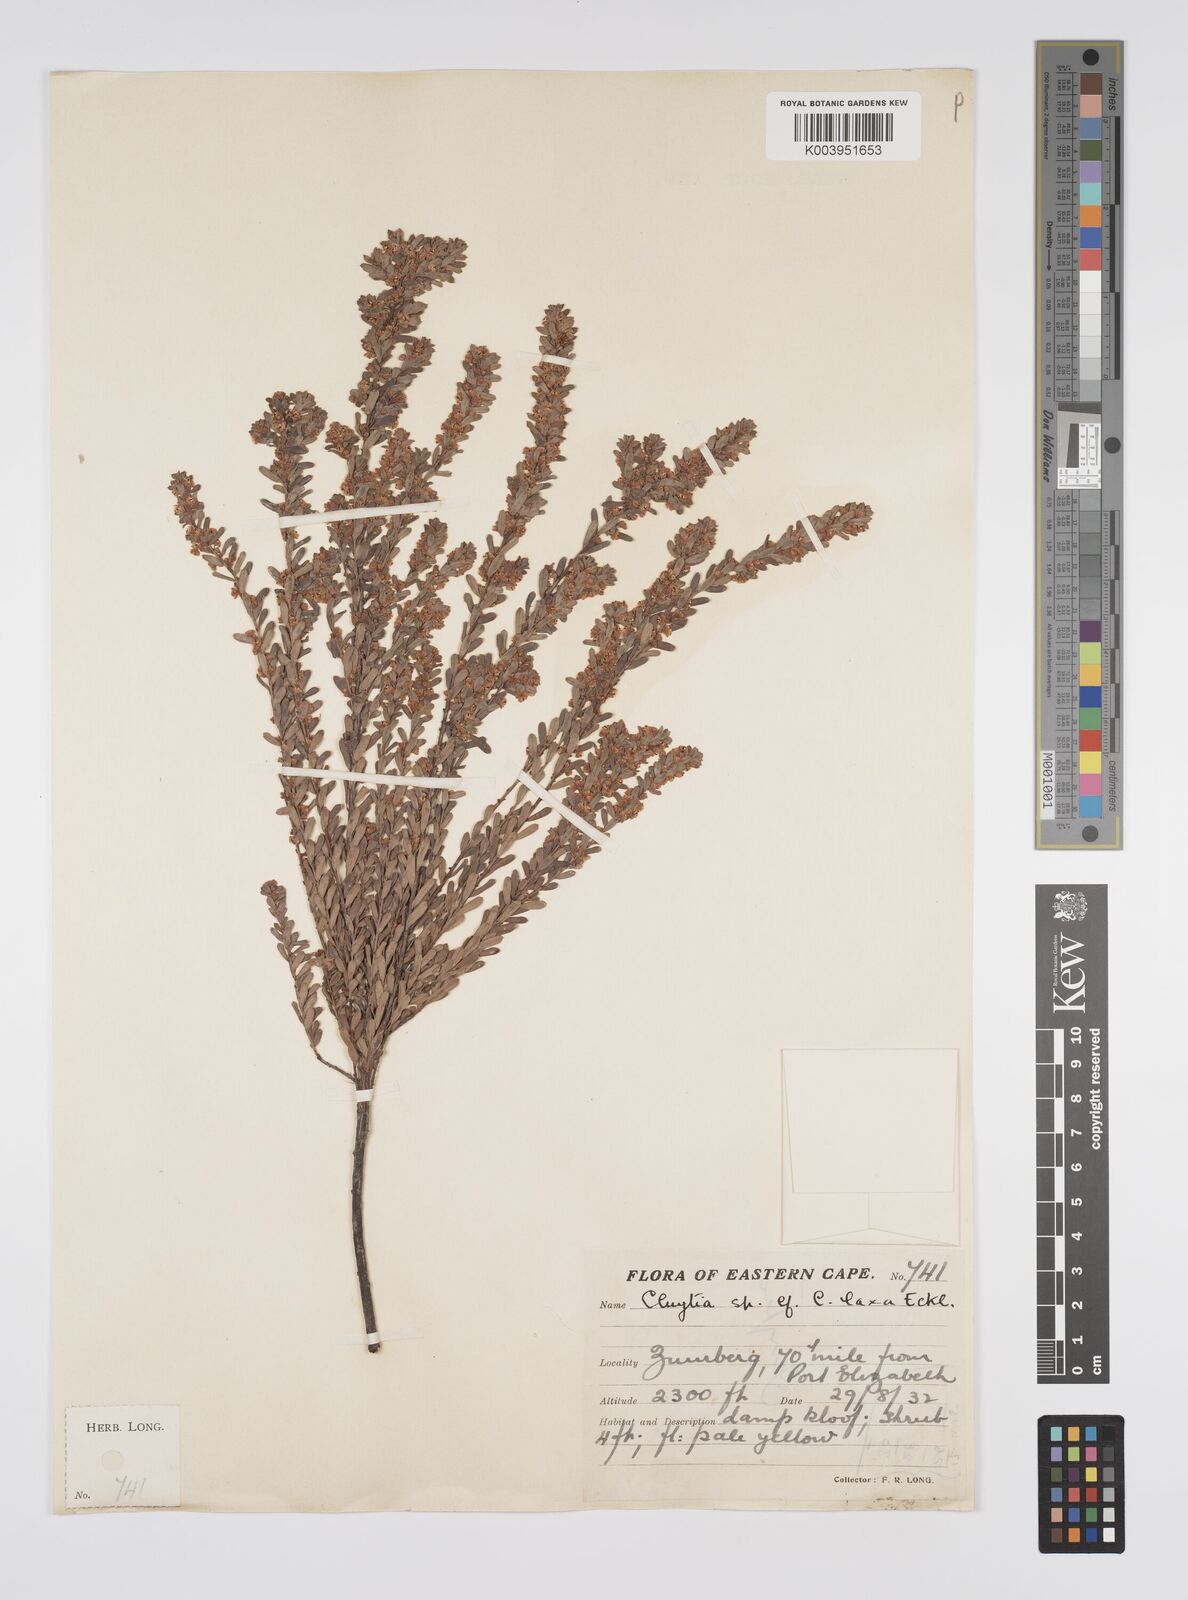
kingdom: Plantae
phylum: Tracheophyta
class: Magnoliopsida
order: Malpighiales
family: Peraceae
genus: Clutia
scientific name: Clutia laxa
